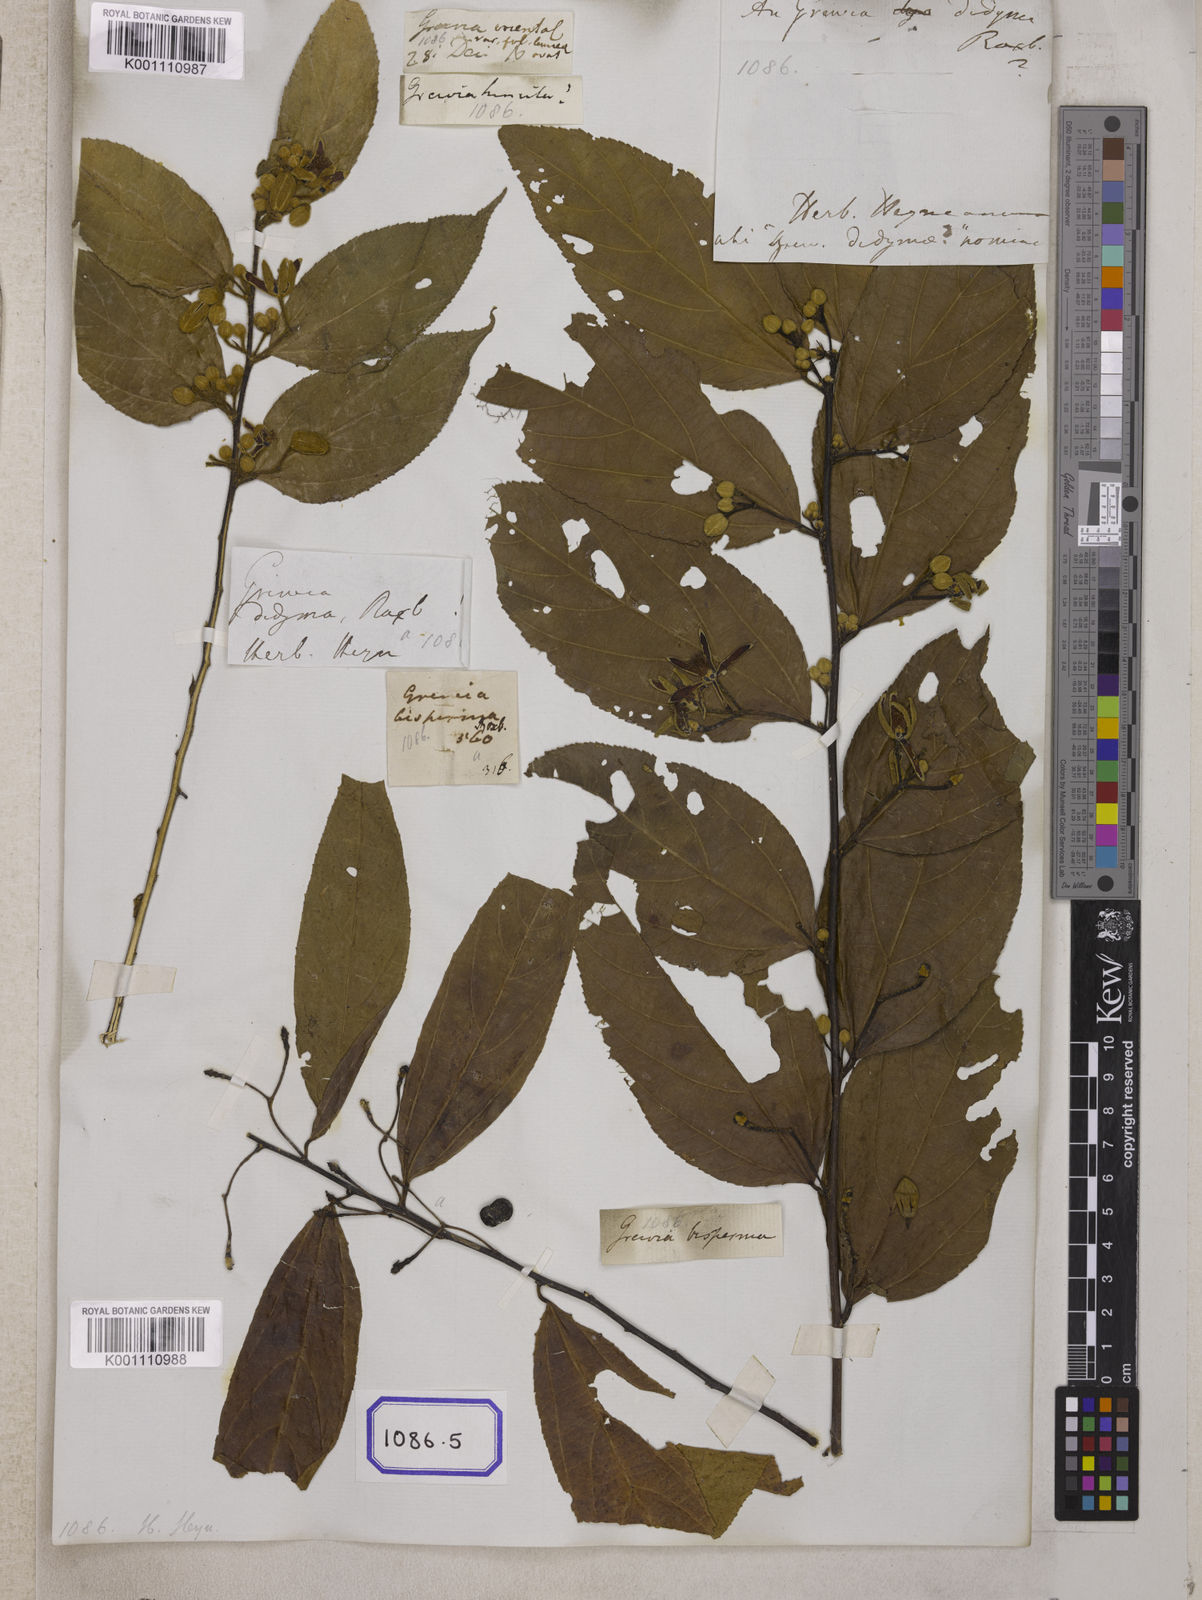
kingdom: Plantae
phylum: Tracheophyta
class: Magnoliopsida
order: Malvales
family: Malvaceae
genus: Grewia
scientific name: Grewia
